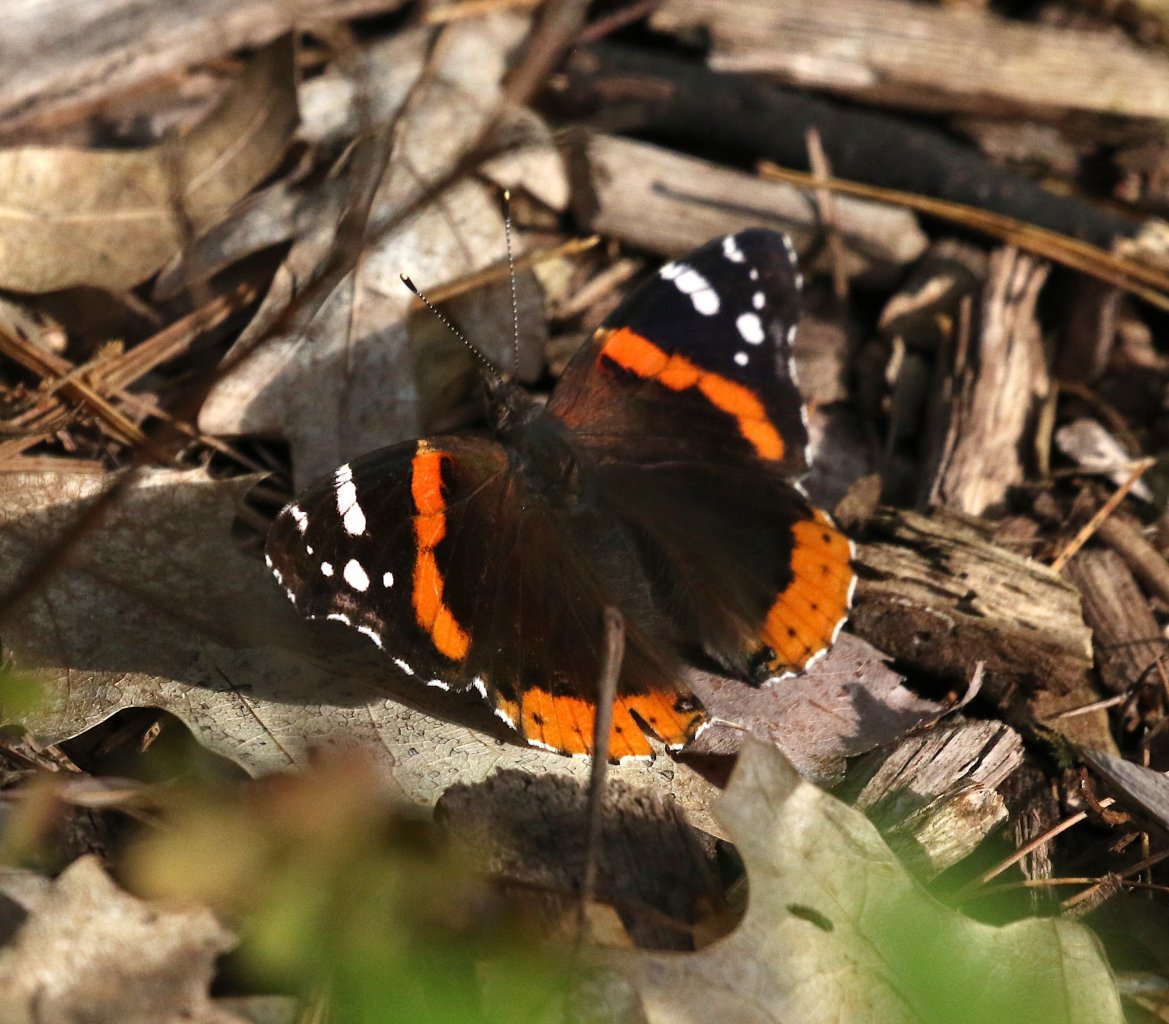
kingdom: Animalia
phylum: Arthropoda
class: Insecta
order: Lepidoptera
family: Nymphalidae
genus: Vanessa
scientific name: Vanessa atalanta
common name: Red Admiral
